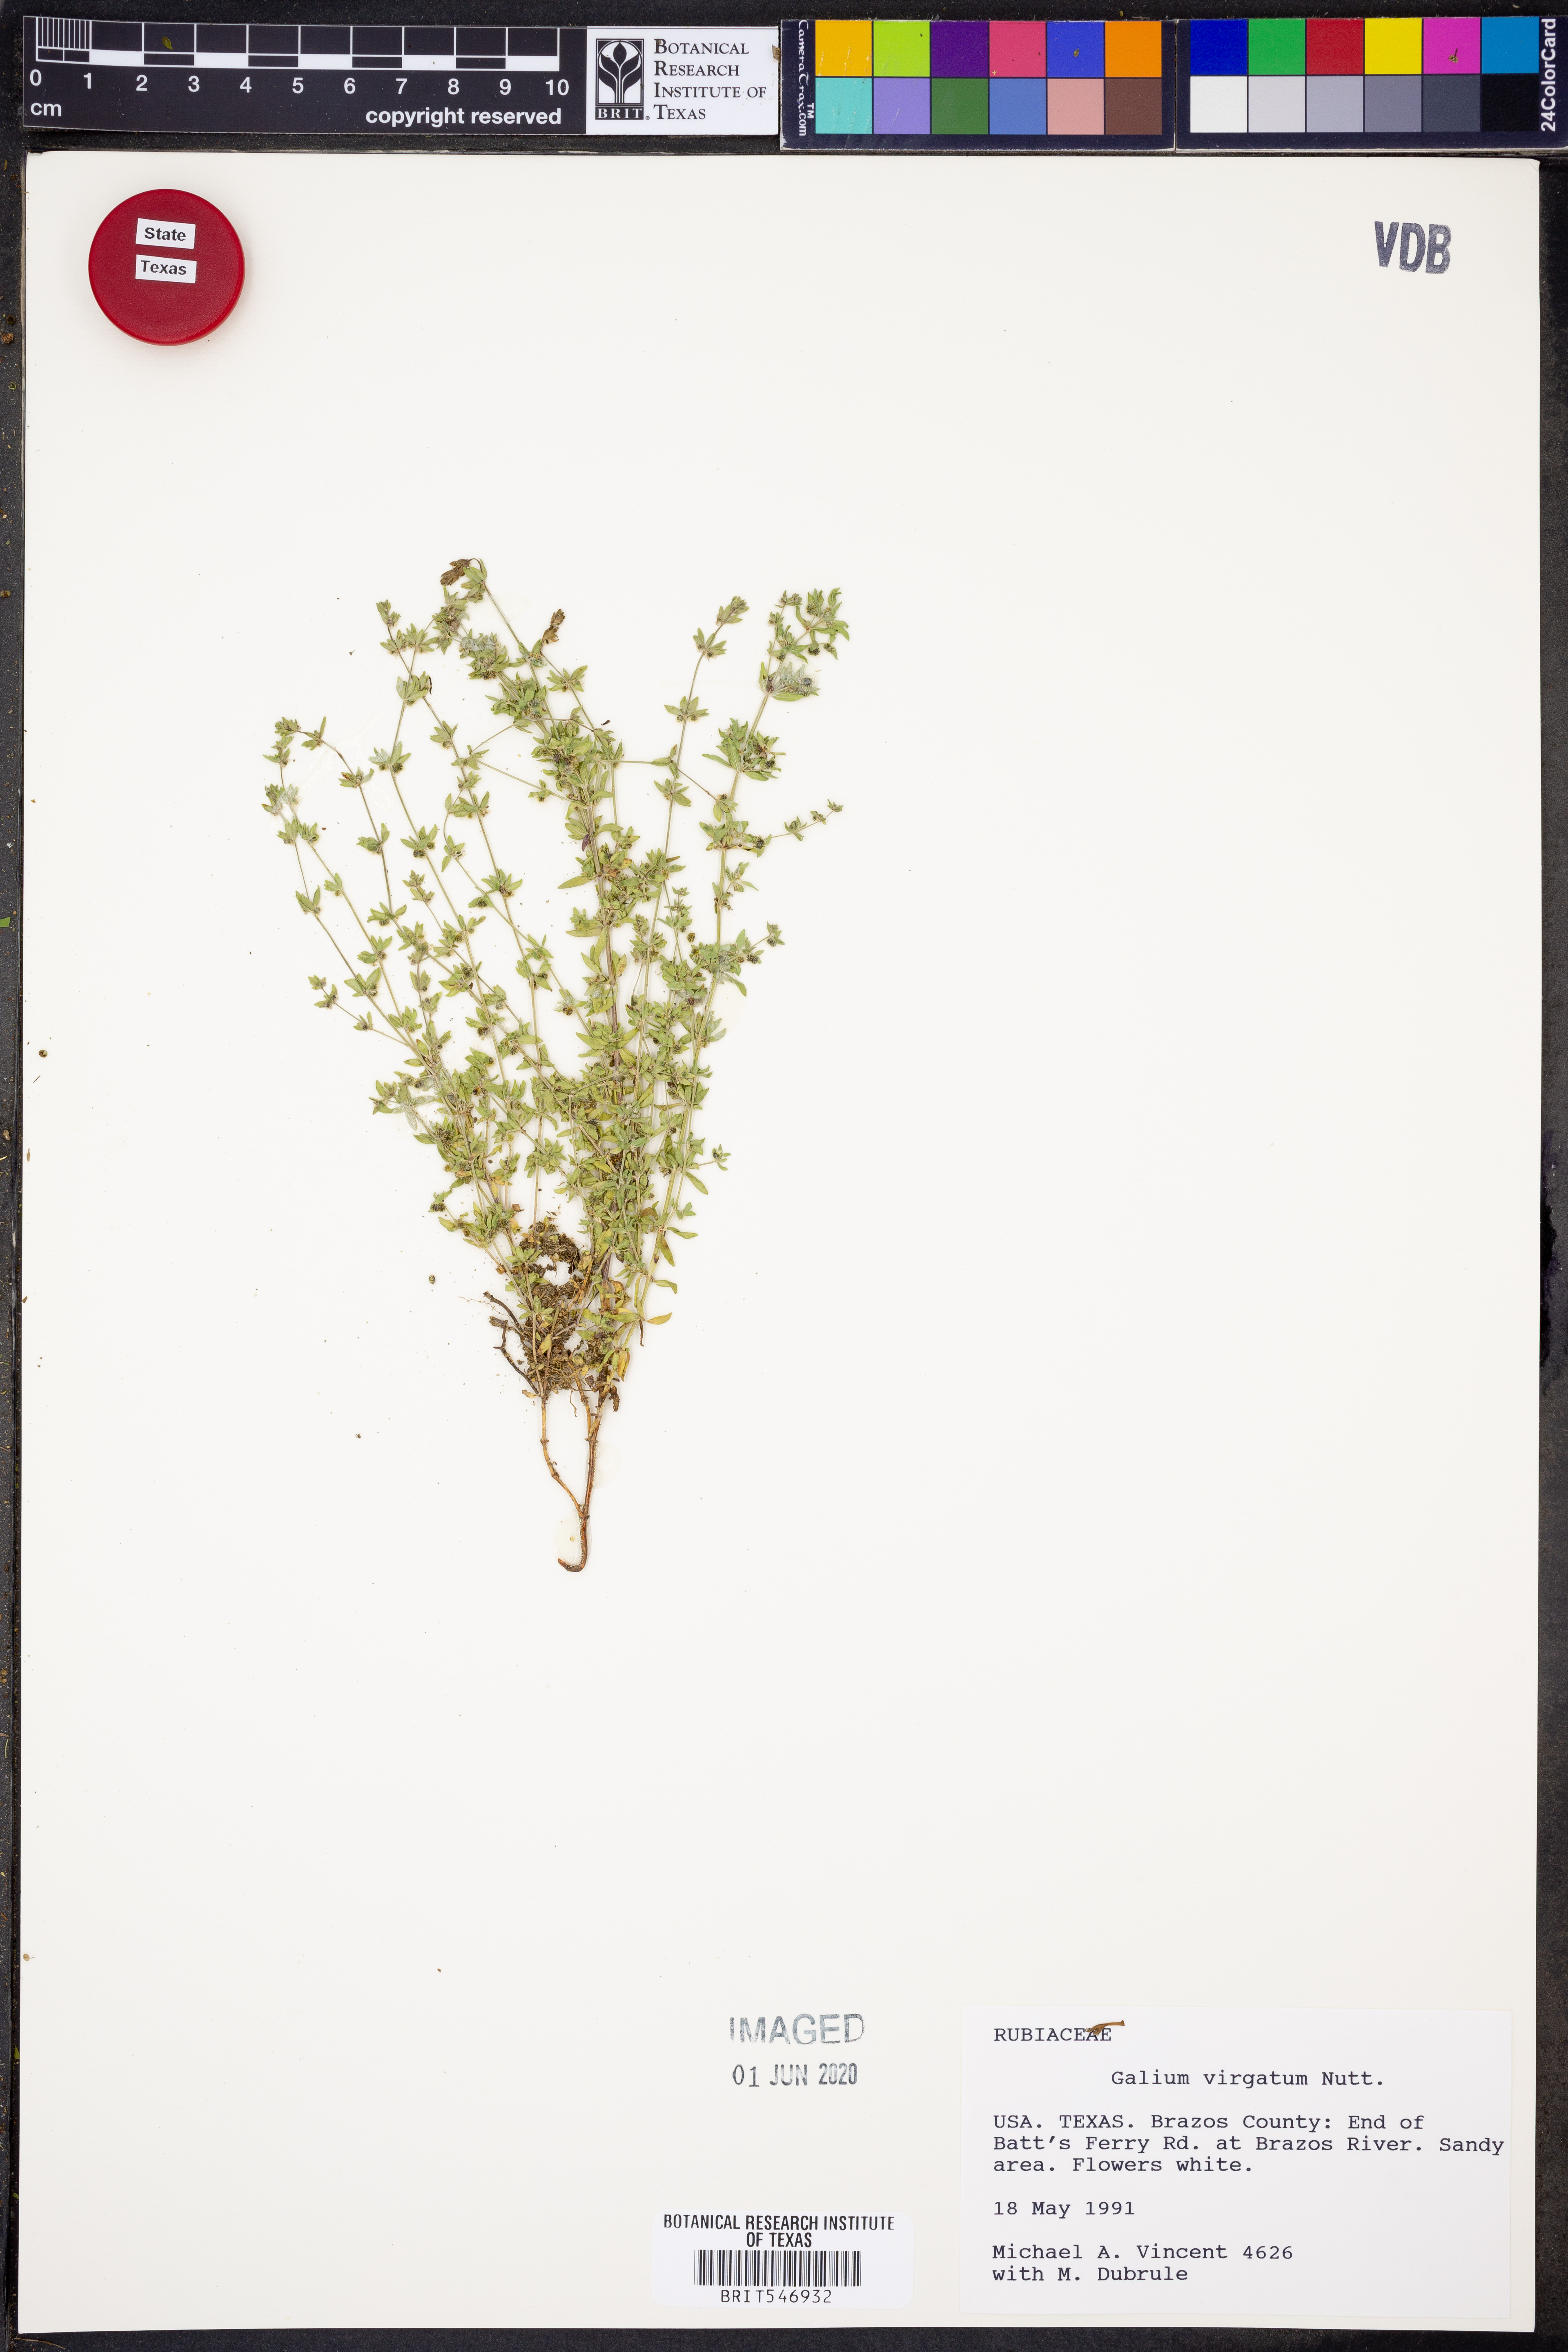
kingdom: Plantae
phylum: Tracheophyta
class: Magnoliopsida
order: Gentianales
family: Rubiaceae
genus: Galium
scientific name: Galium virgatum
